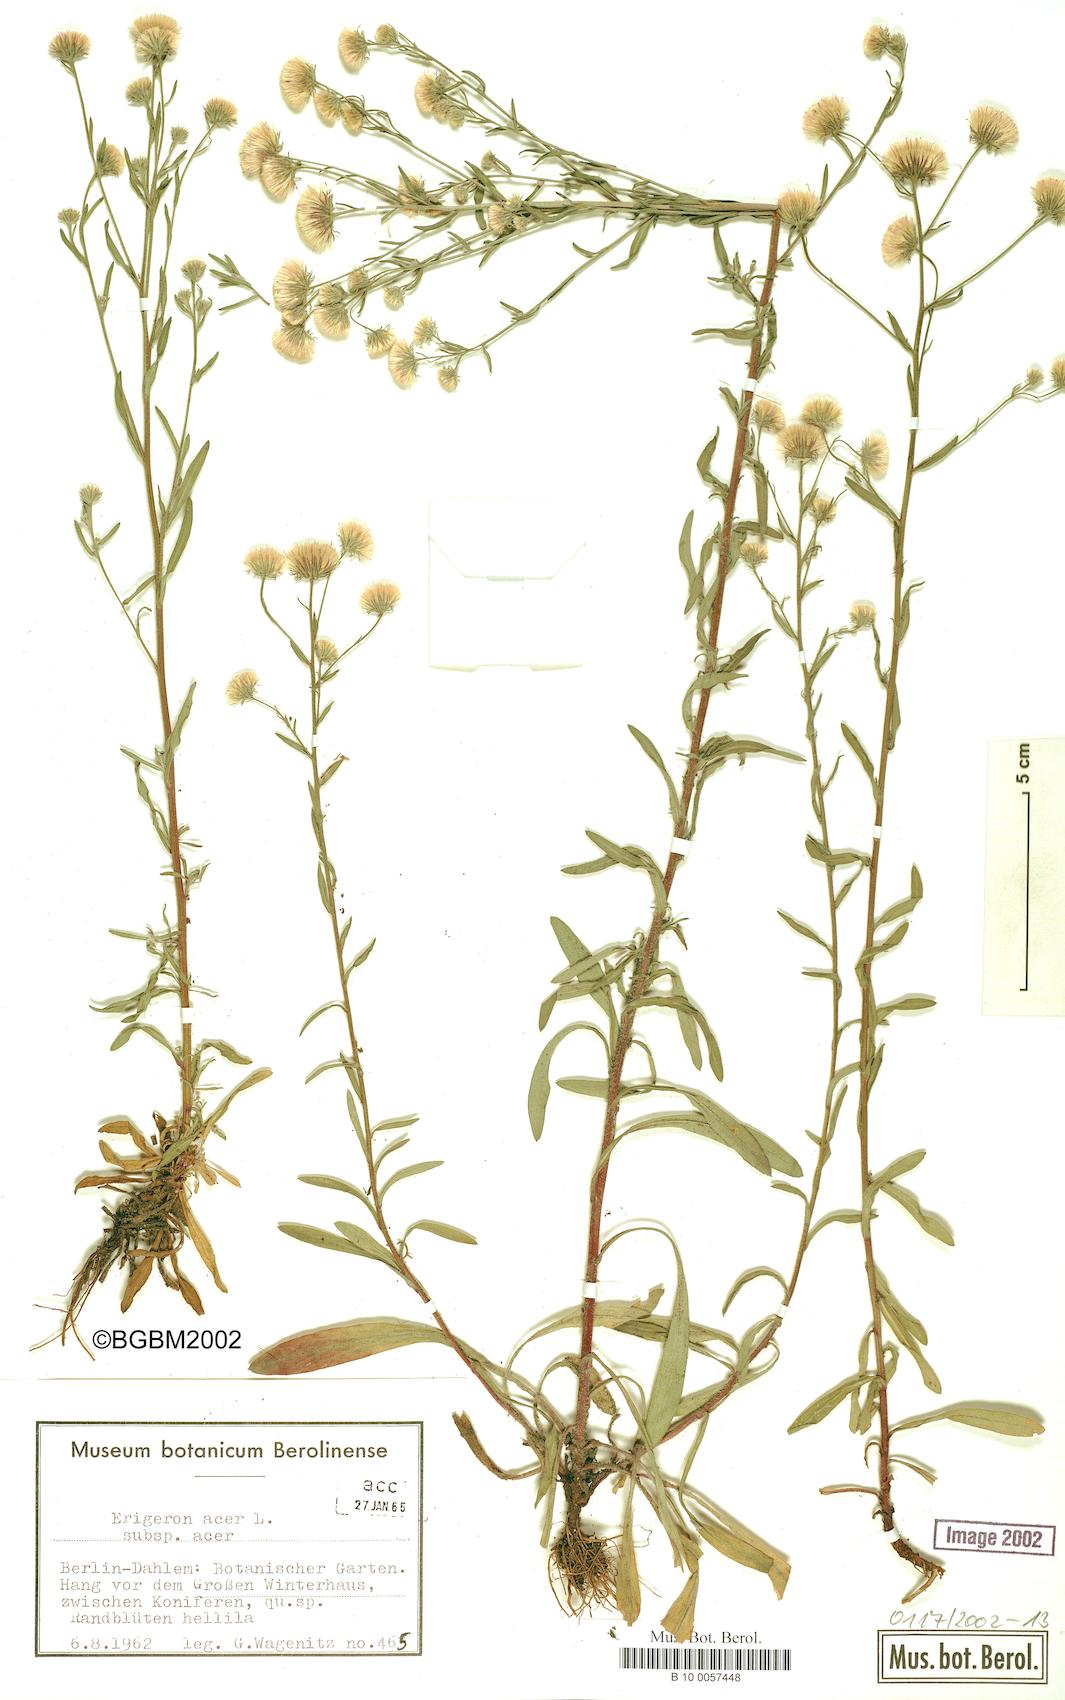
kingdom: Plantae
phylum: Tracheophyta
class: Magnoliopsida
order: Asterales
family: Asteraceae
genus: Erigeron
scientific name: Erigeron muralis
